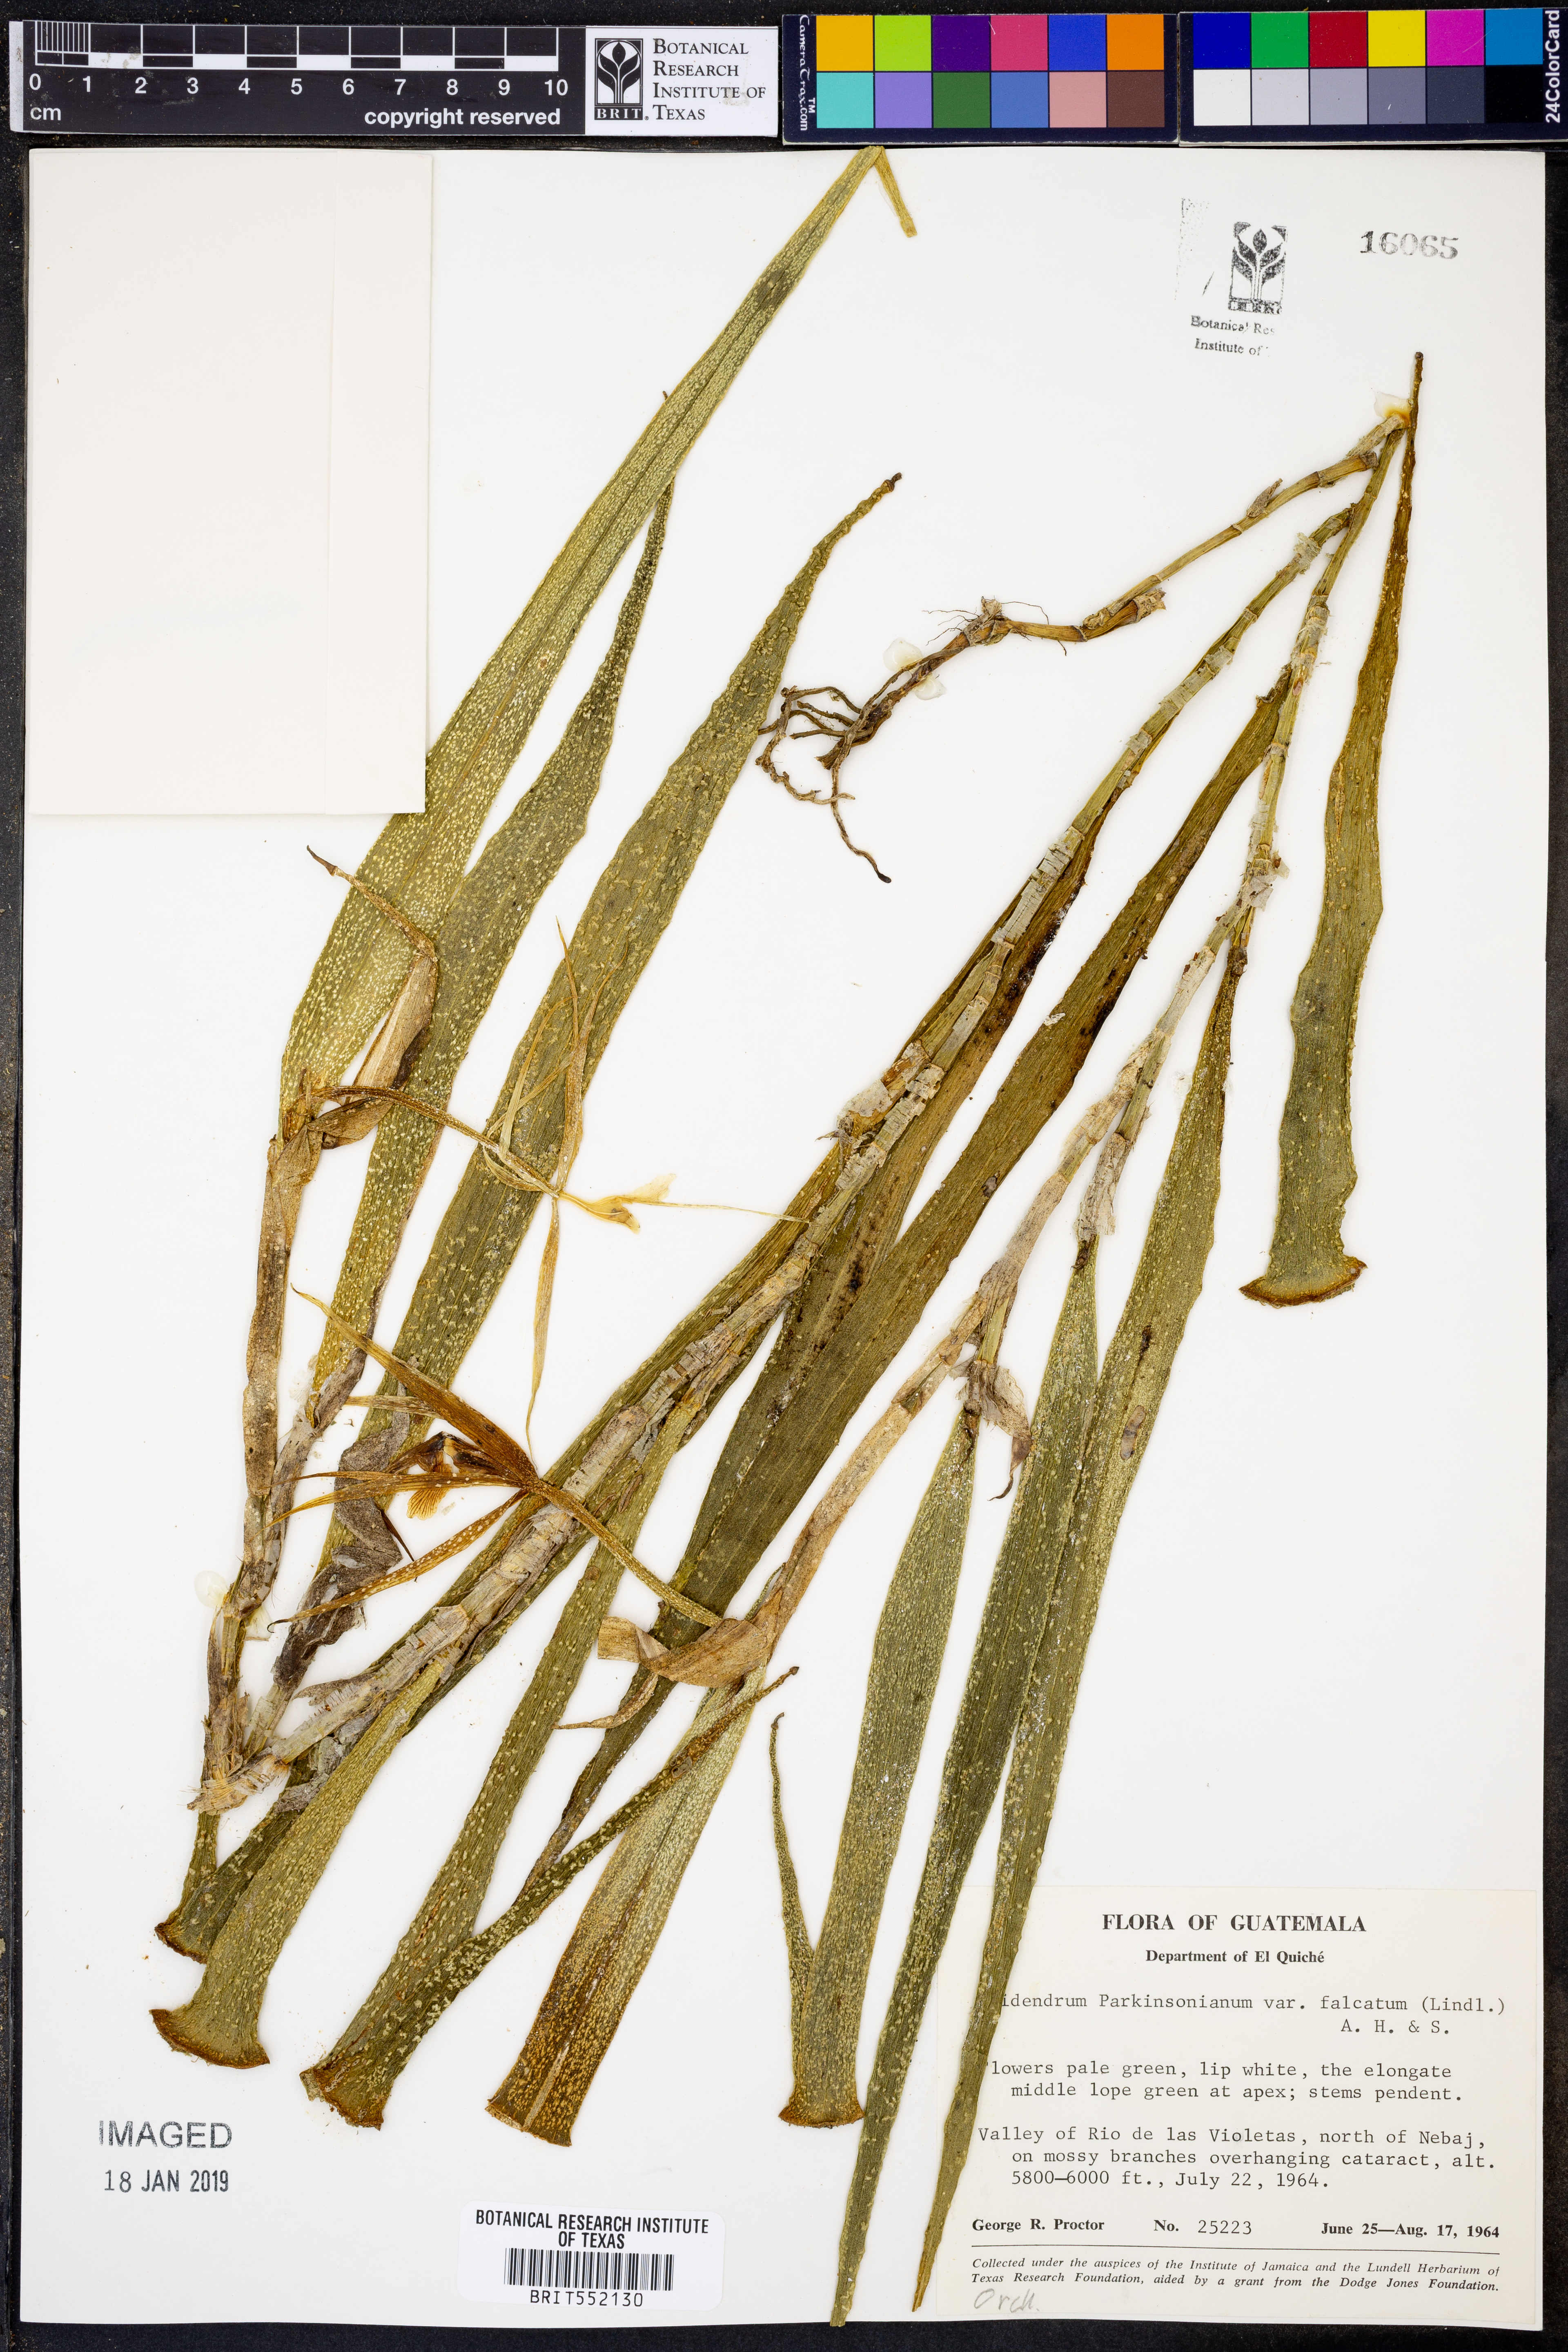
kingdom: Plantae
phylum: Tracheophyta
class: Liliopsida
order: Asparagales
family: Orchidaceae
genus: Epidendrum
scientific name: Epidendrum falcatum
